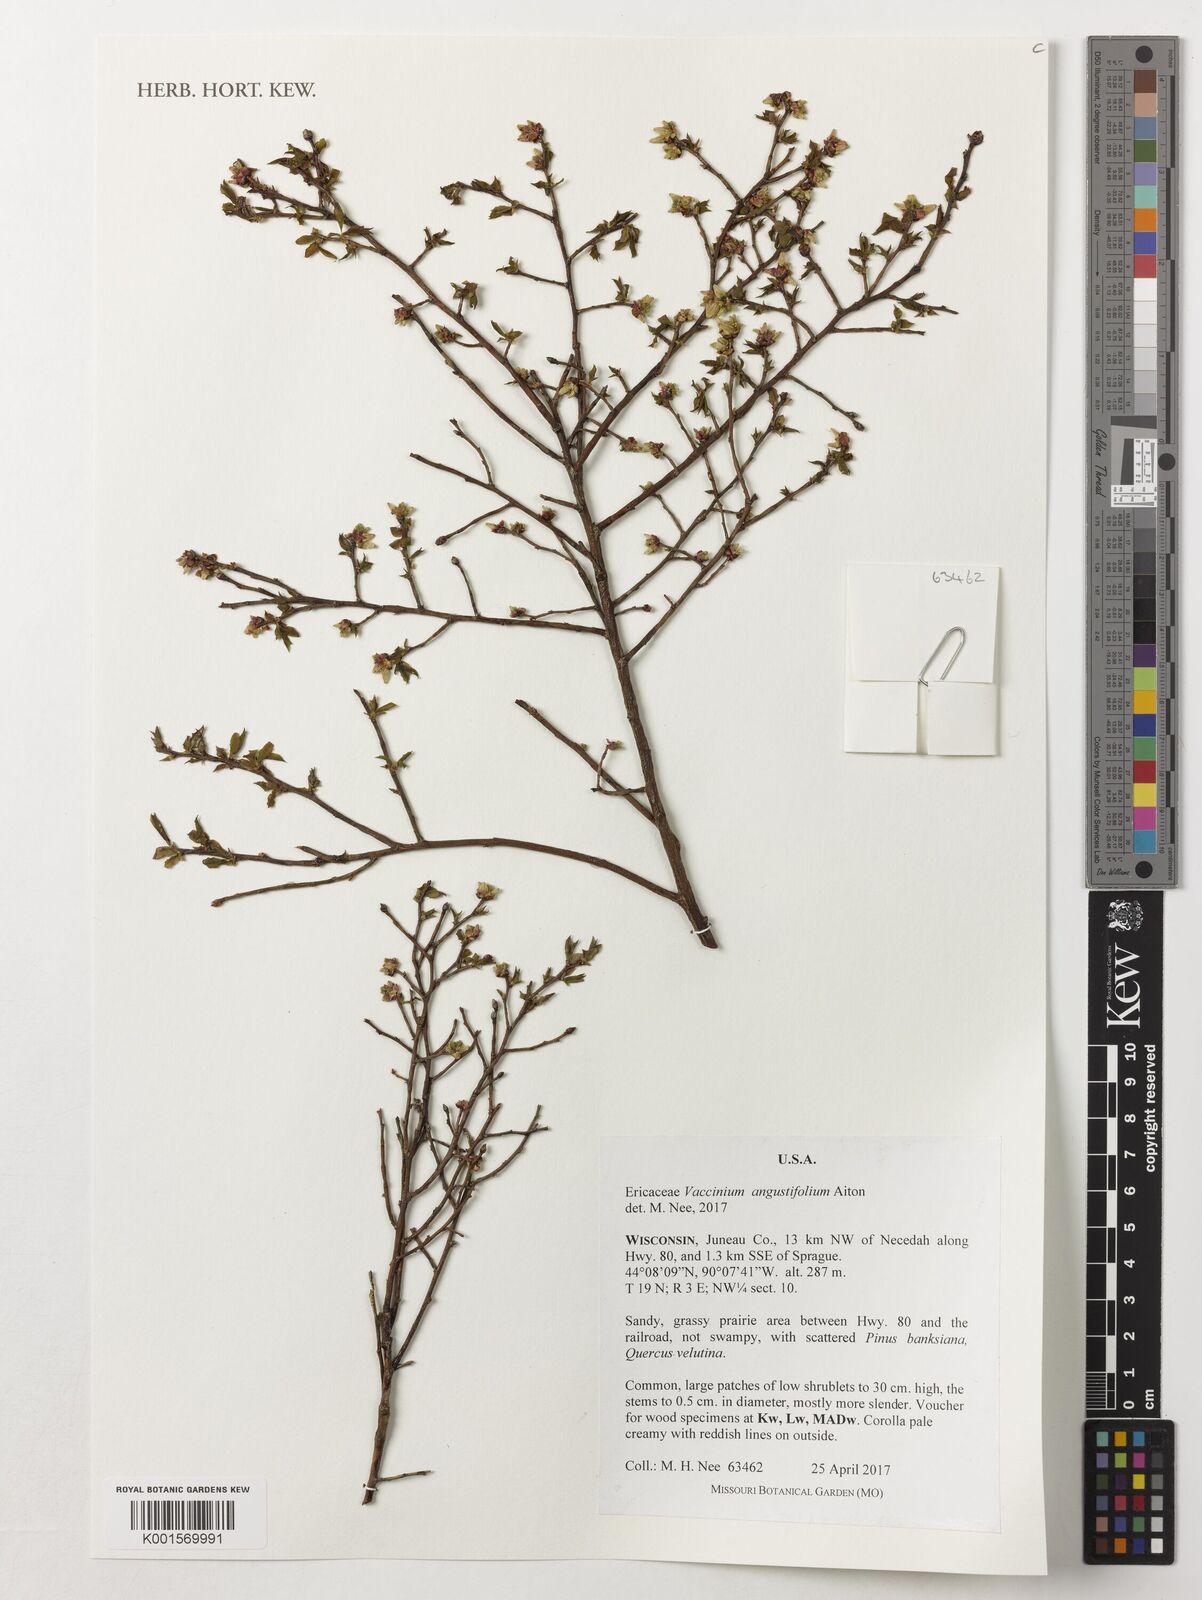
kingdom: Plantae
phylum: Tracheophyta
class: Magnoliopsida
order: Ericales
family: Ericaceae
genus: Vaccinium
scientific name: Vaccinium angustifolium
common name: Early lowbush blueberry
